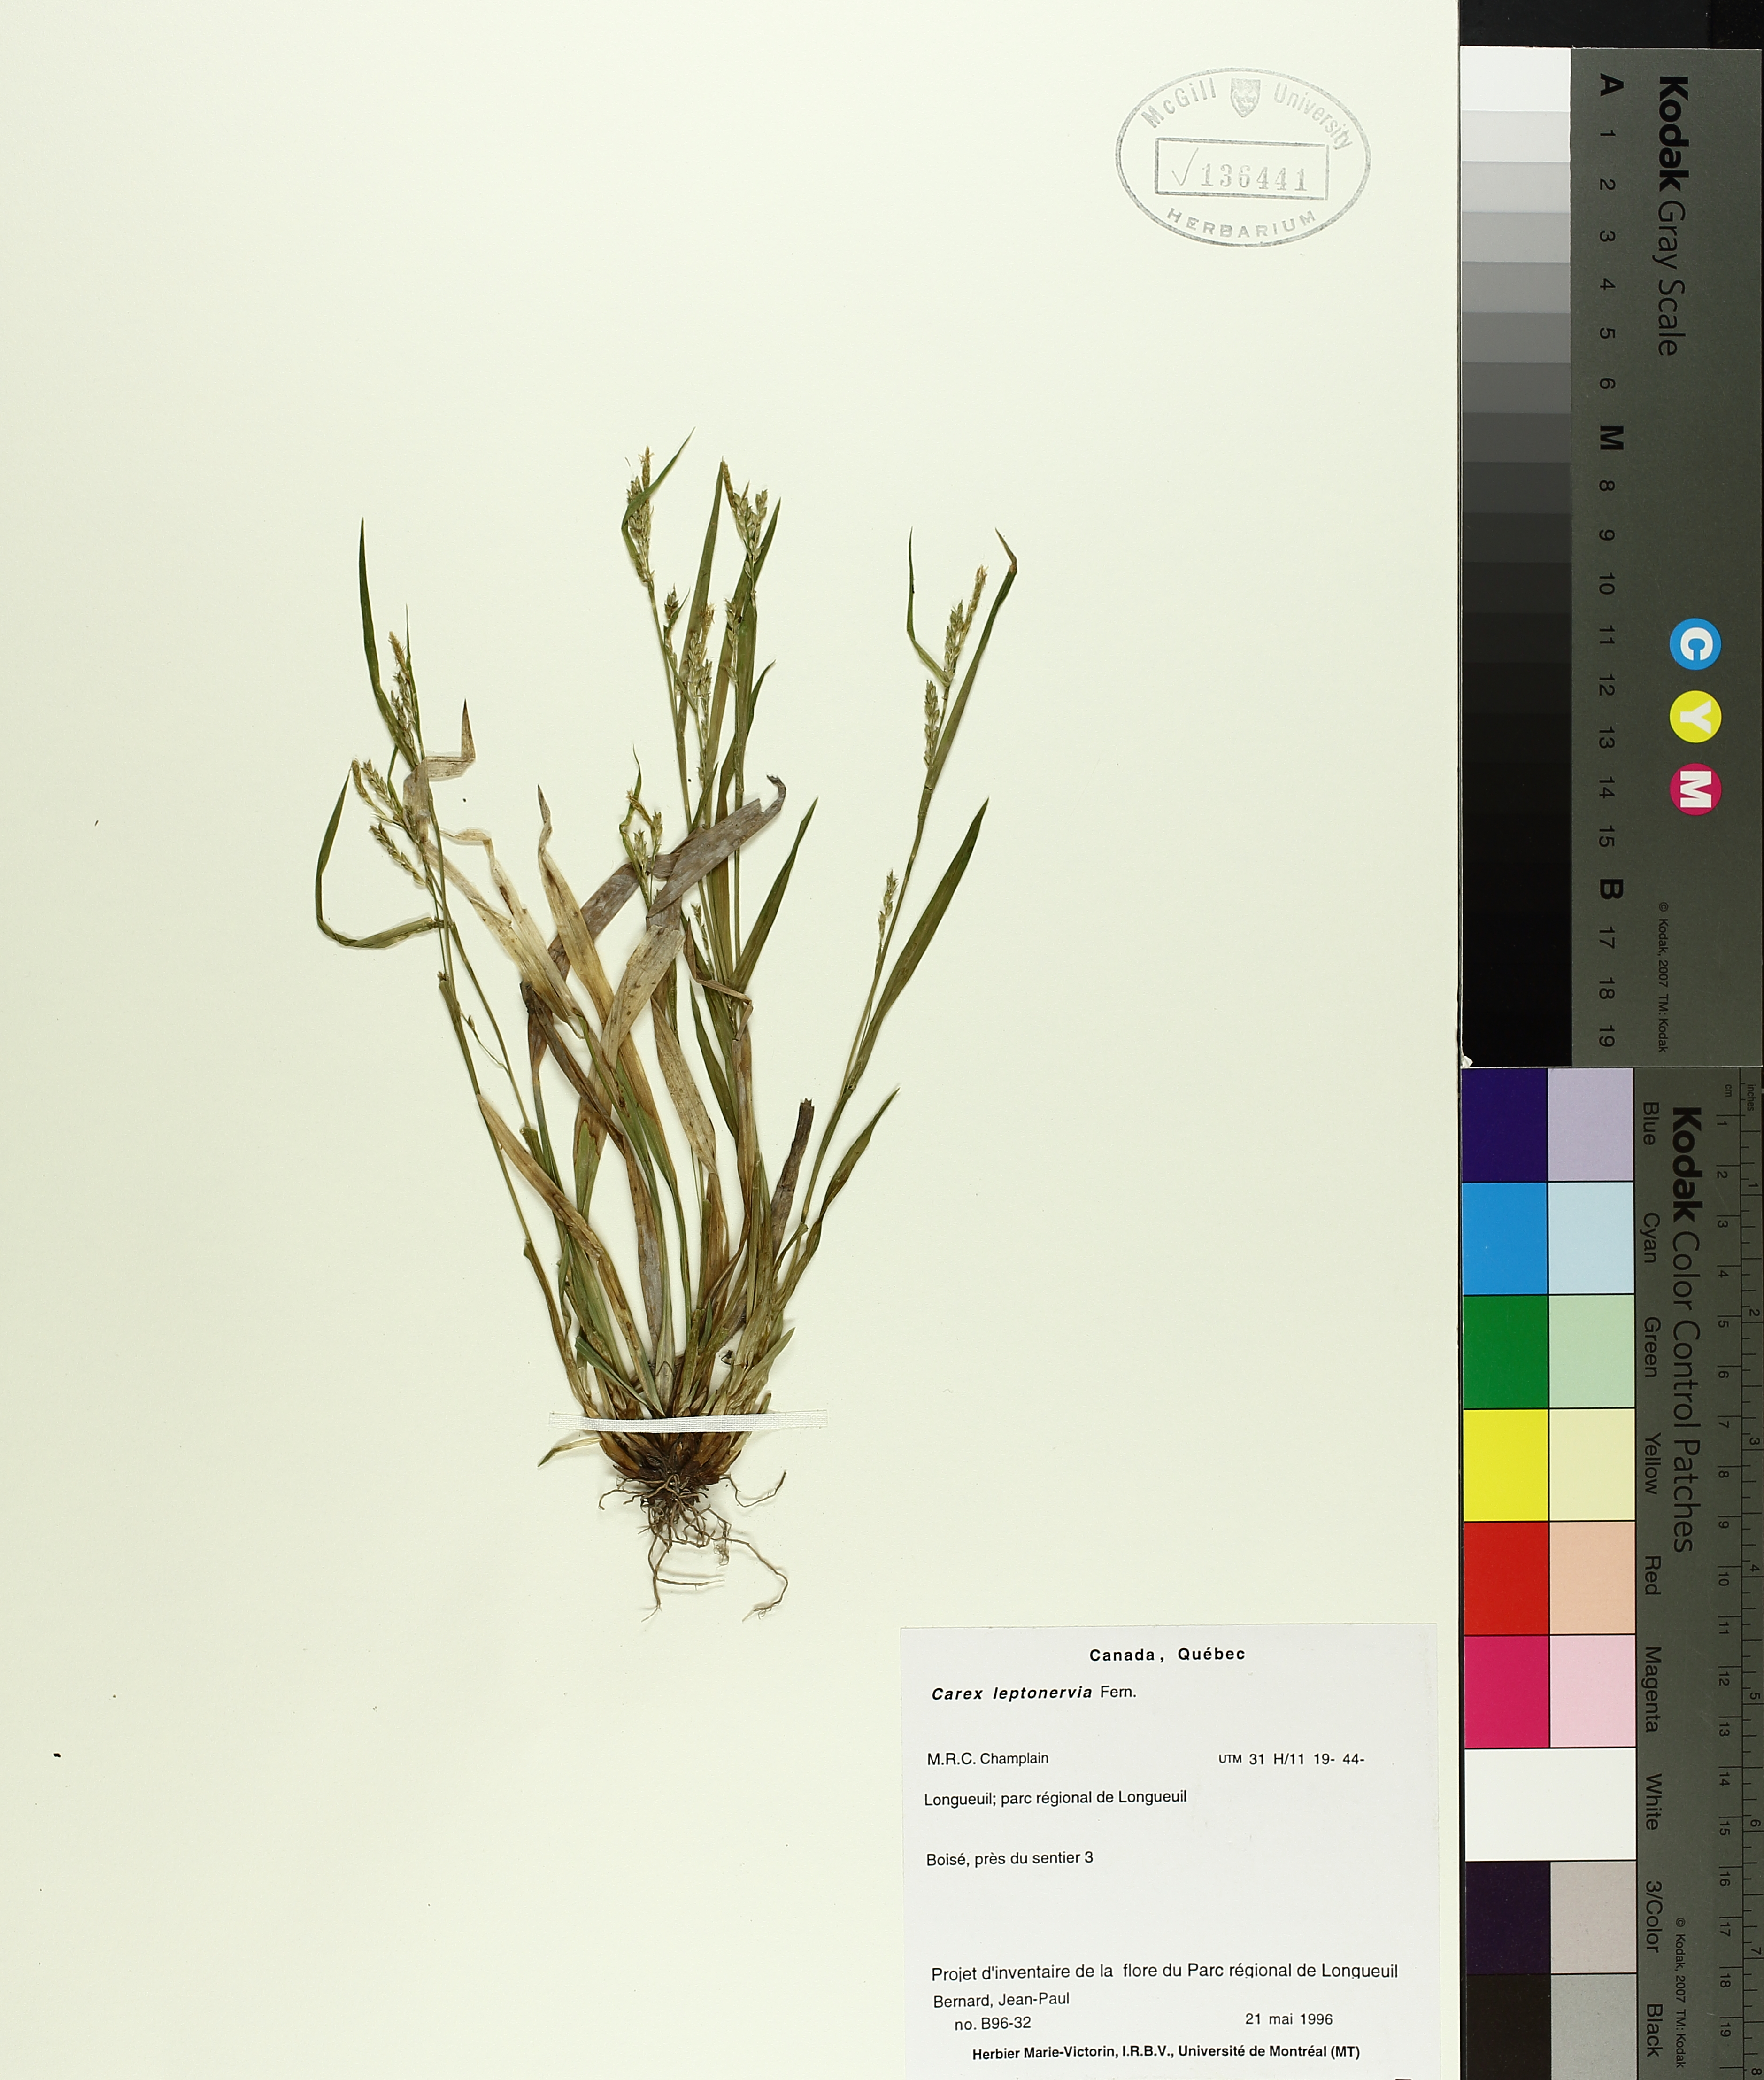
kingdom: Plantae
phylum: Tracheophyta
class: Liliopsida
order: Poales
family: Cyperaceae
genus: Carex
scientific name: Carex leptonervia
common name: Few-nerved wood sedge
